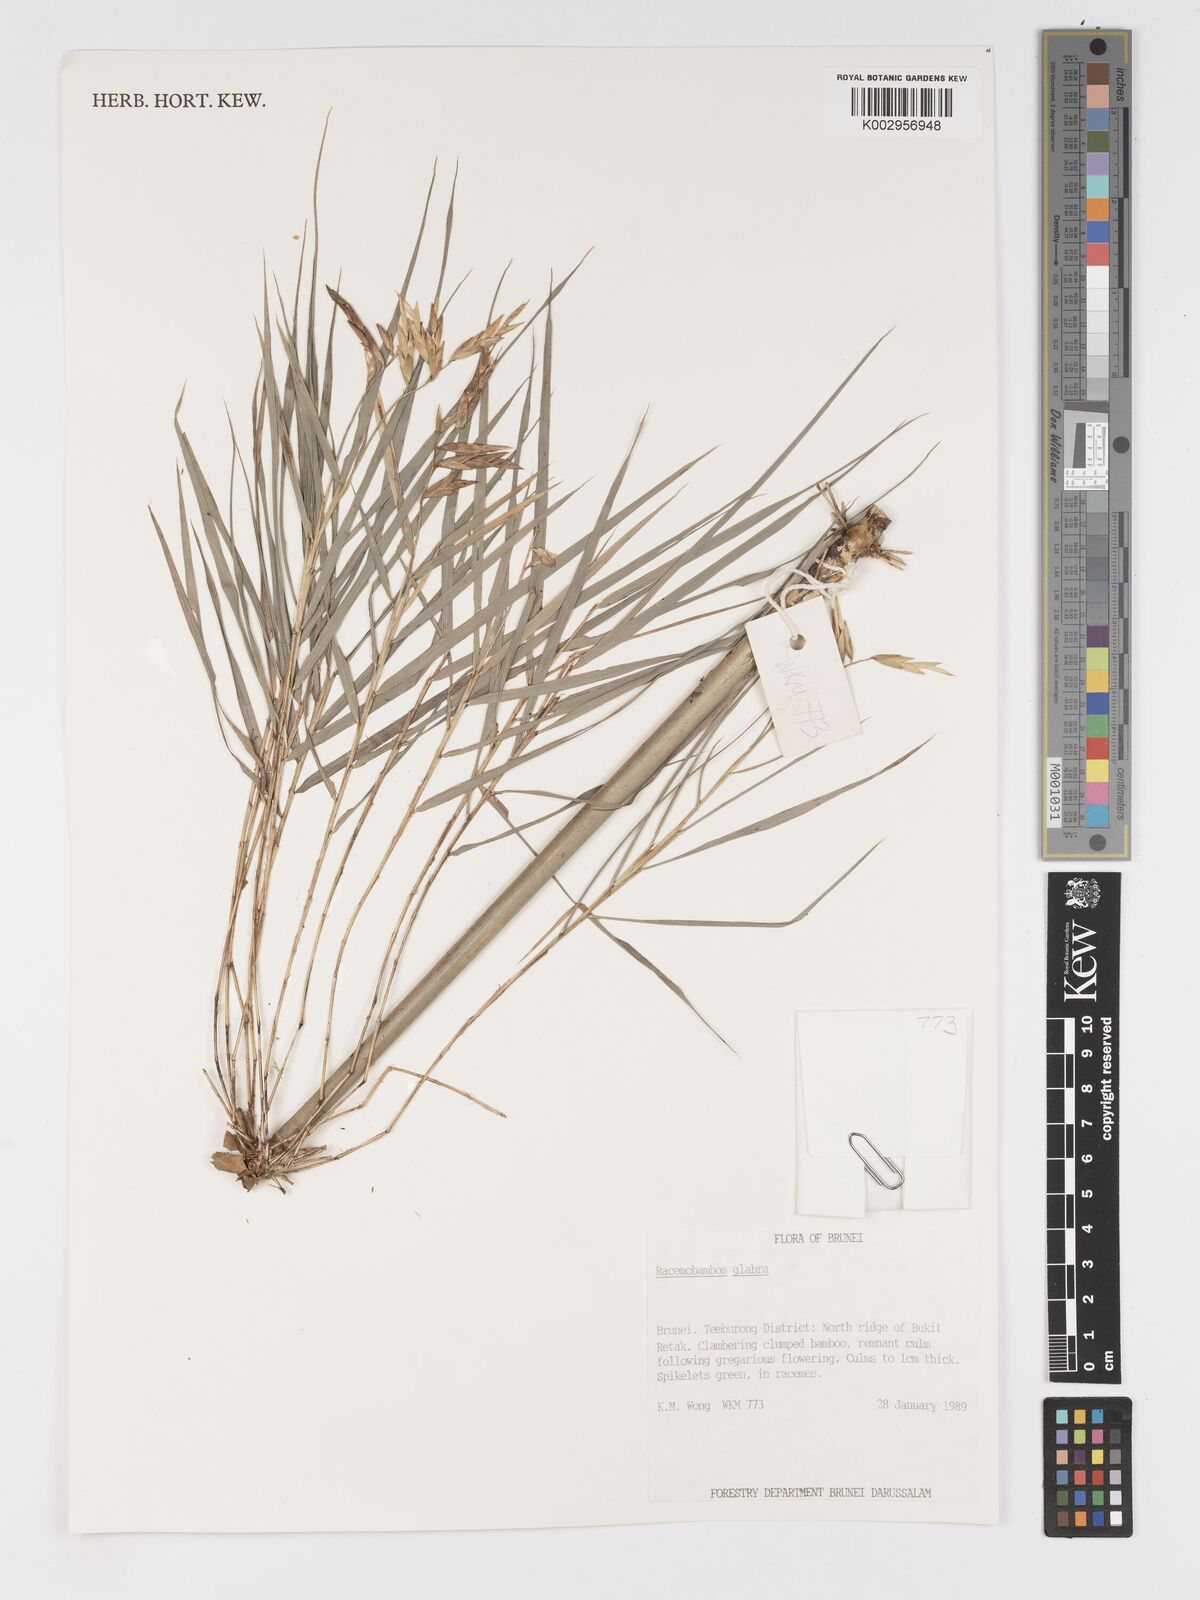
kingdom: Plantae
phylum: Tracheophyta
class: Liliopsida
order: Poales
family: Poaceae
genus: Racemobambos
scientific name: Racemobambos glabra
